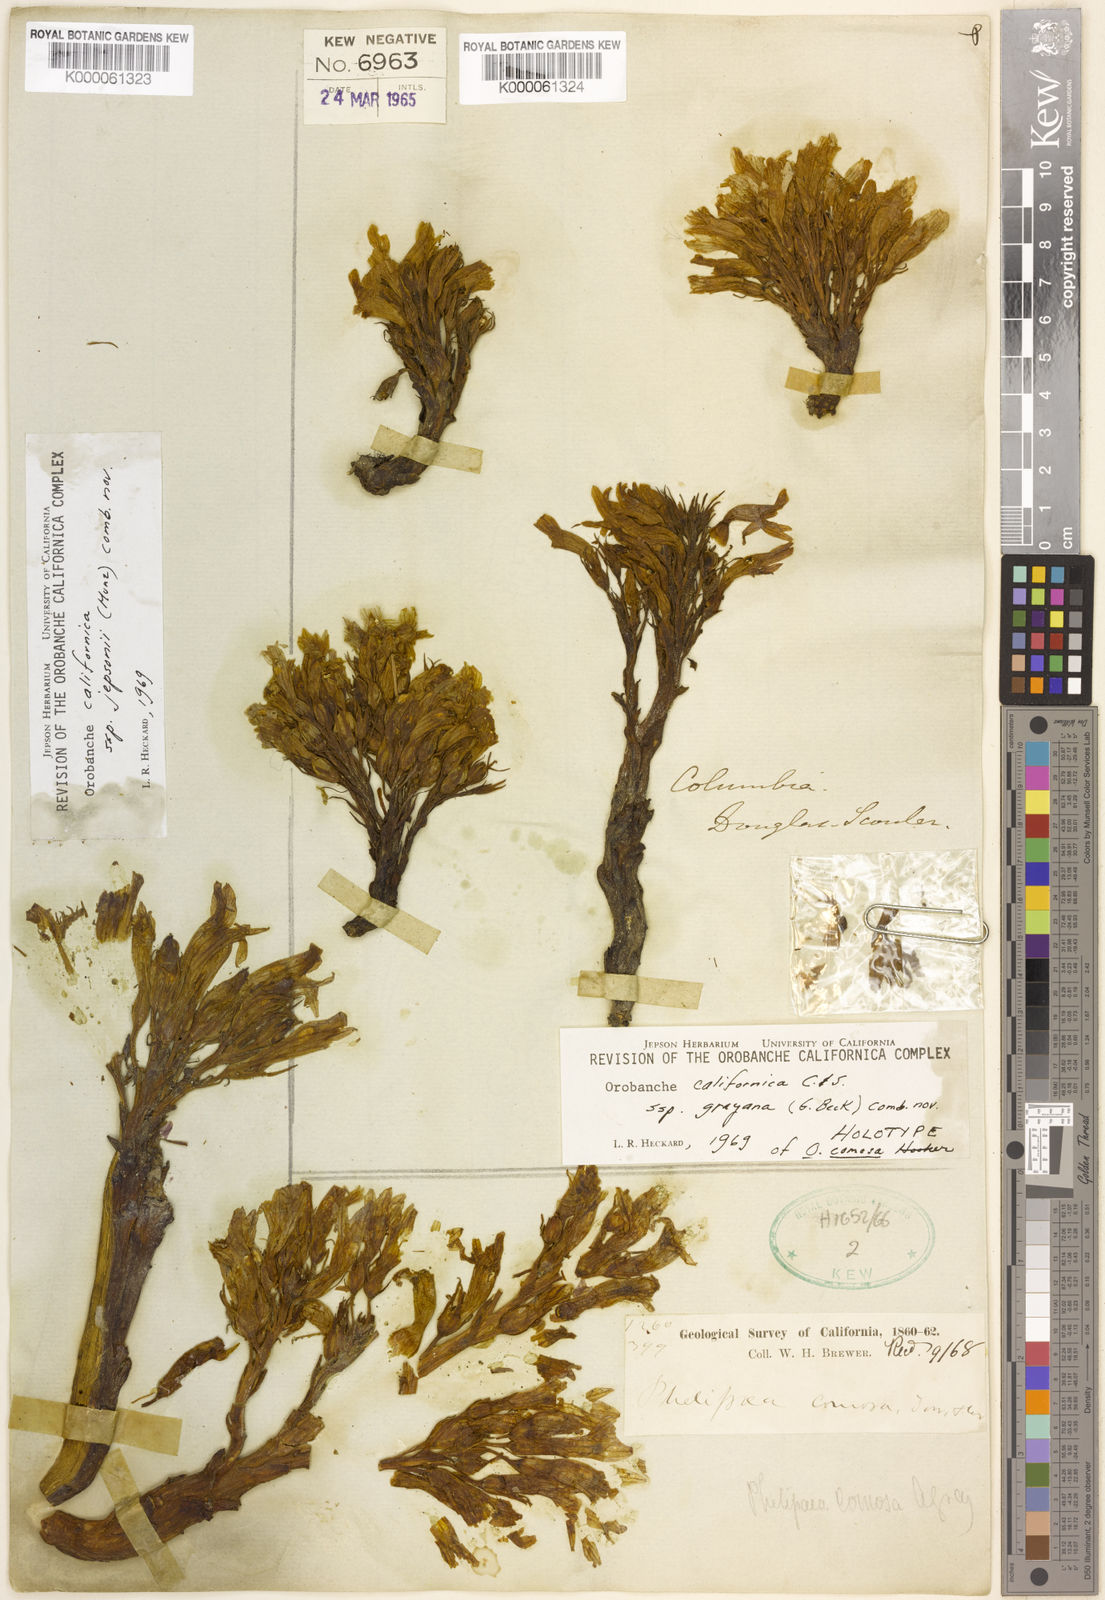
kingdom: Plantae
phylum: Tracheophyta
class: Magnoliopsida
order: Lamiales
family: Orobanchaceae
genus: Aphyllon
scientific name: Aphyllon californicum
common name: California broomrape
